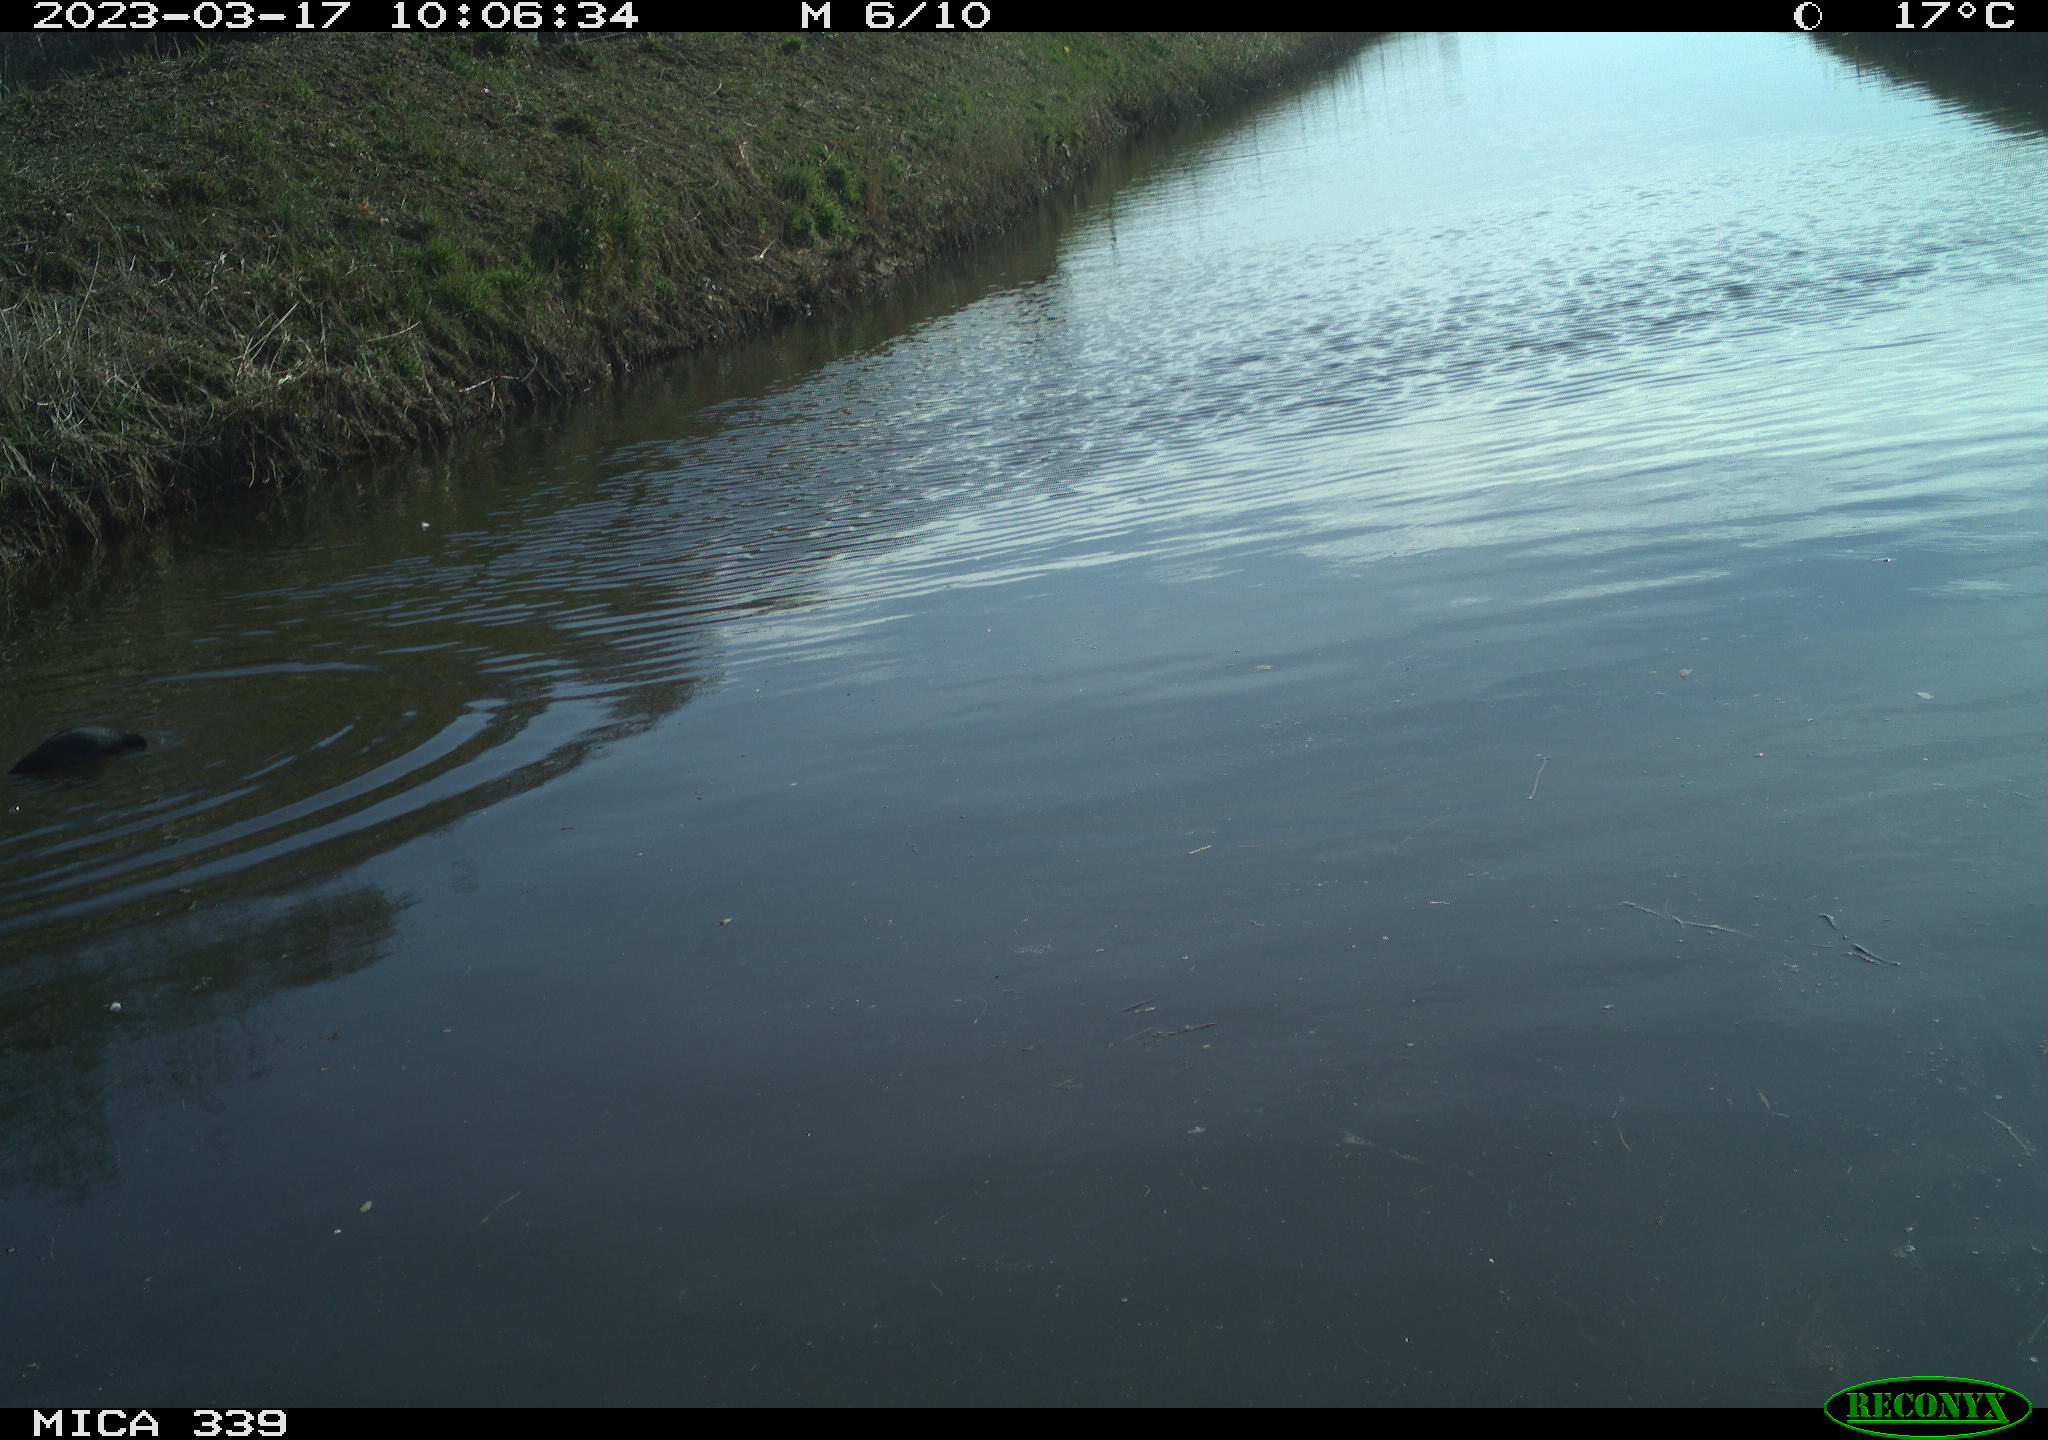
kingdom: Animalia
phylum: Chordata
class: Aves
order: Gruiformes
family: Rallidae
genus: Fulica
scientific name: Fulica atra
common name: Eurasian coot
